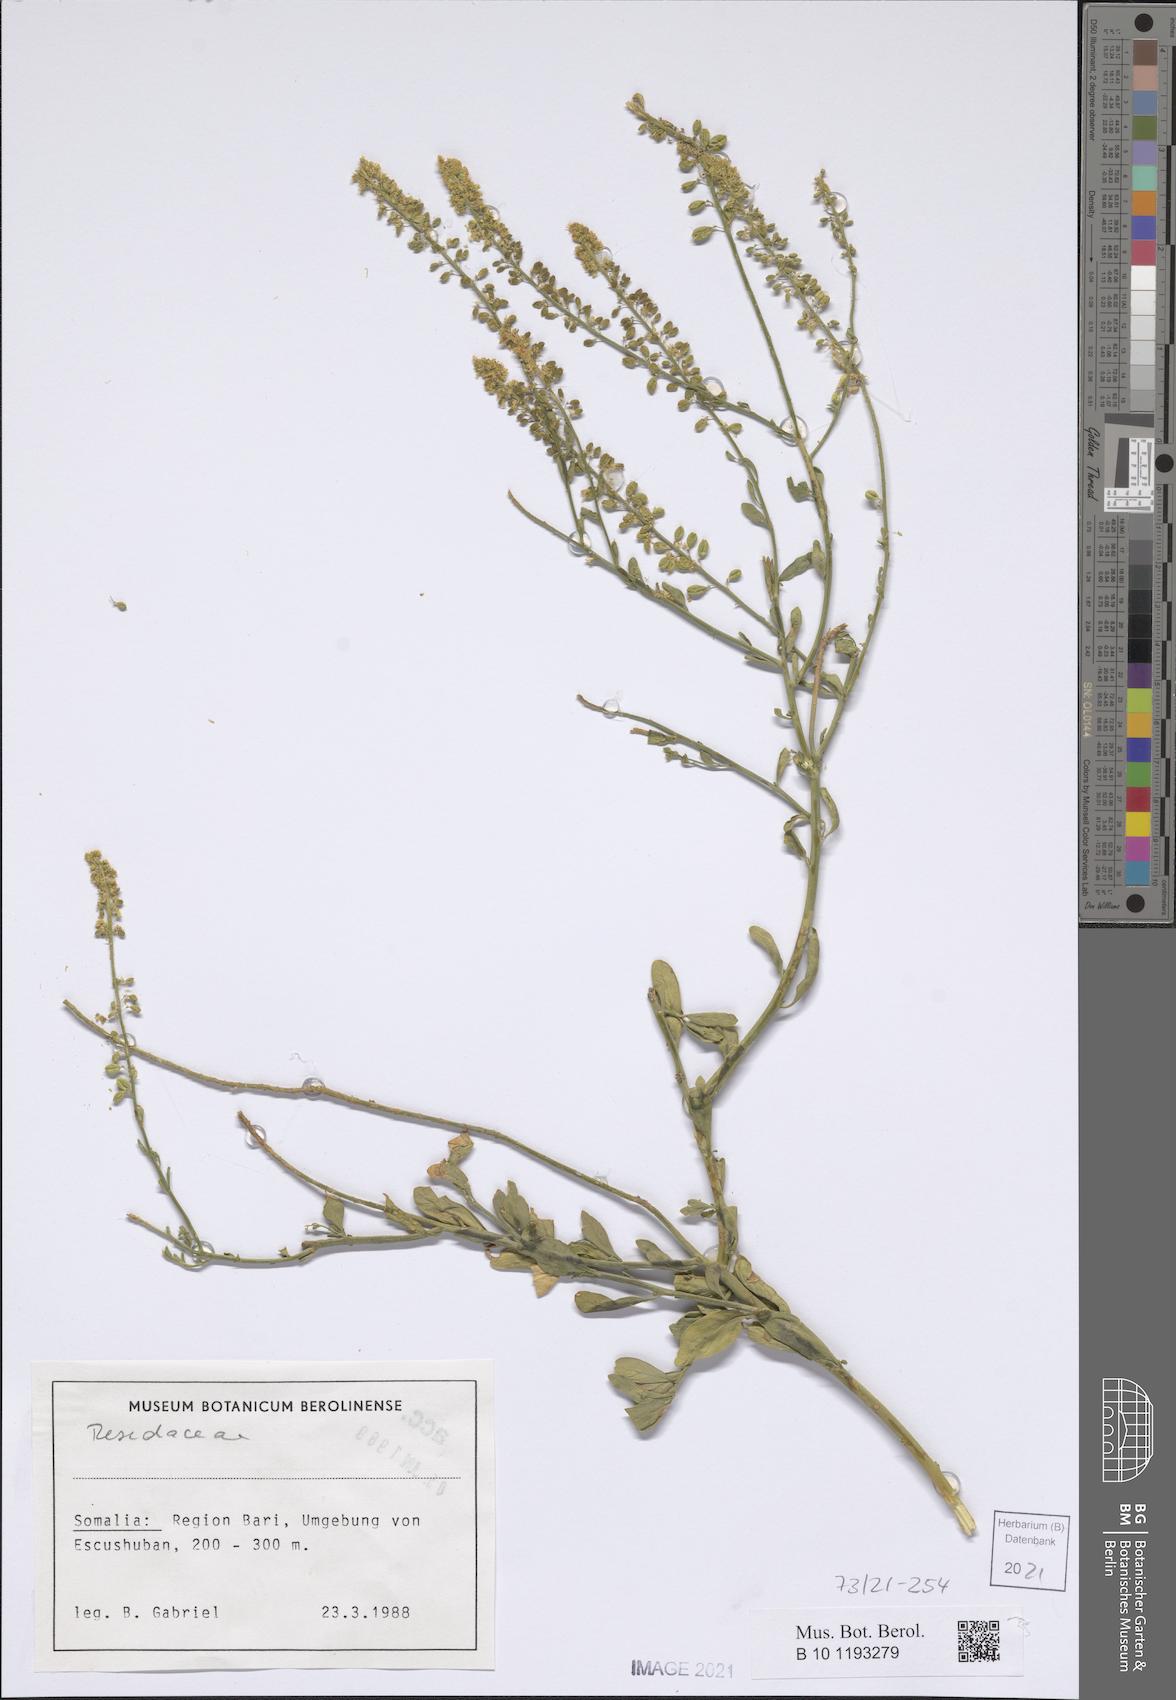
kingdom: Plantae
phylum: Tracheophyta
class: Magnoliopsida
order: Brassicales
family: Resedaceae
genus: Reseda
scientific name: Reseda amblycarpa
